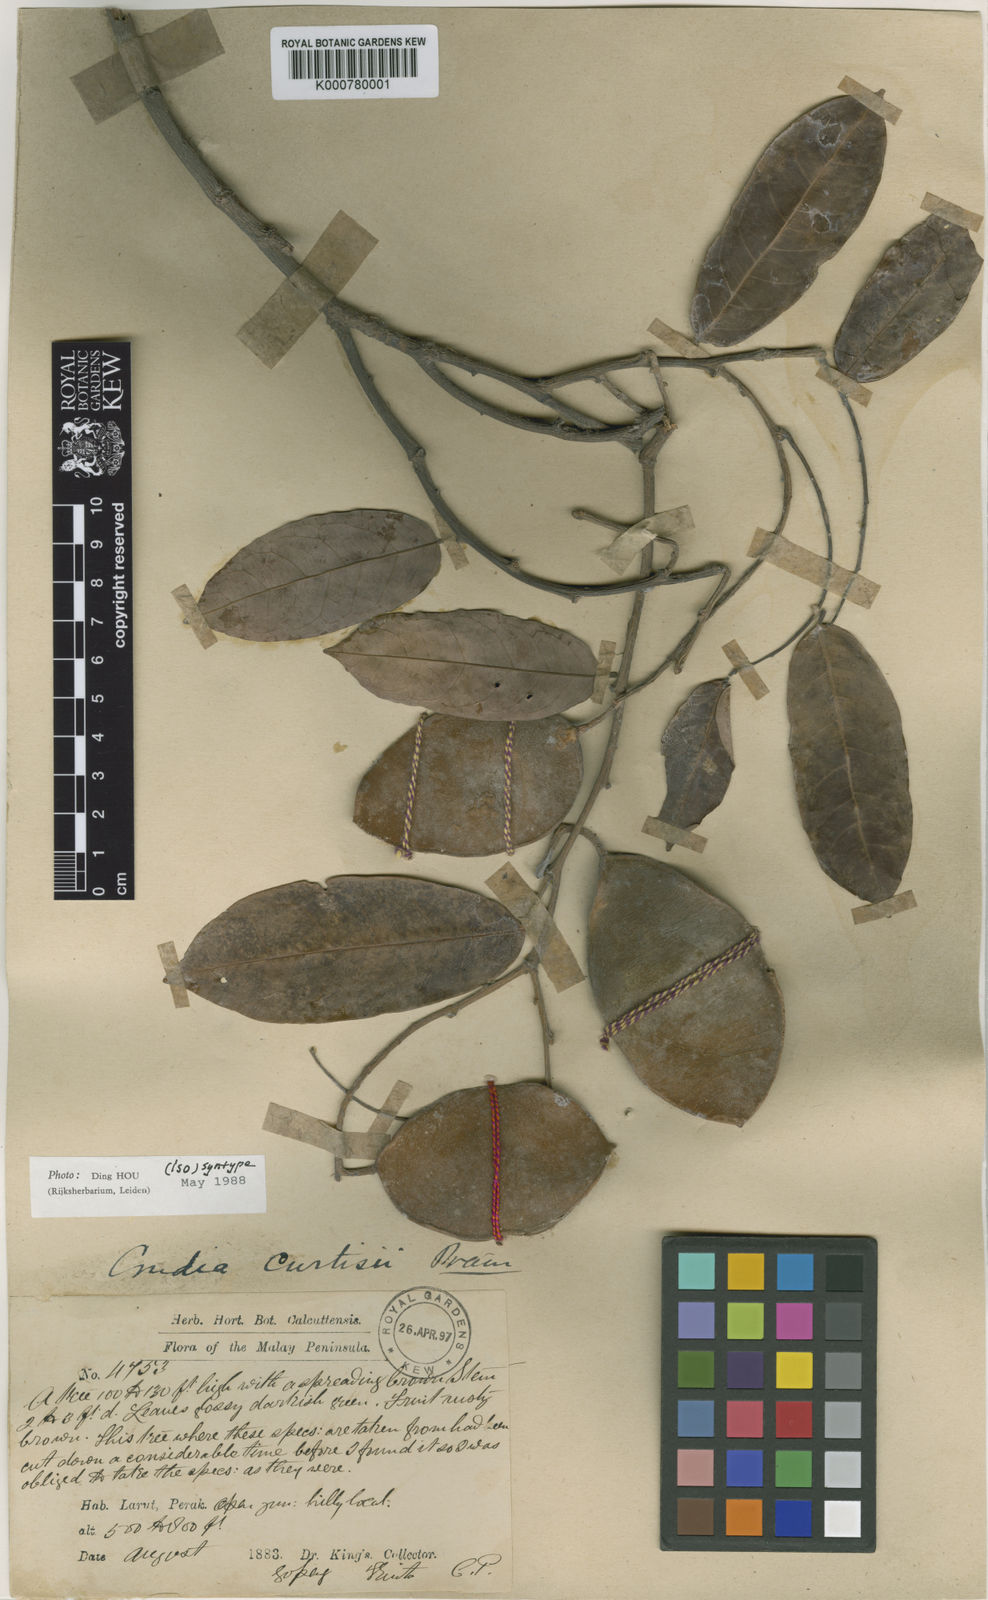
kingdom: Plantae
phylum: Tracheophyta
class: Magnoliopsida
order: Fabales
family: Fabaceae
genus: Crudia
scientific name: Crudia
